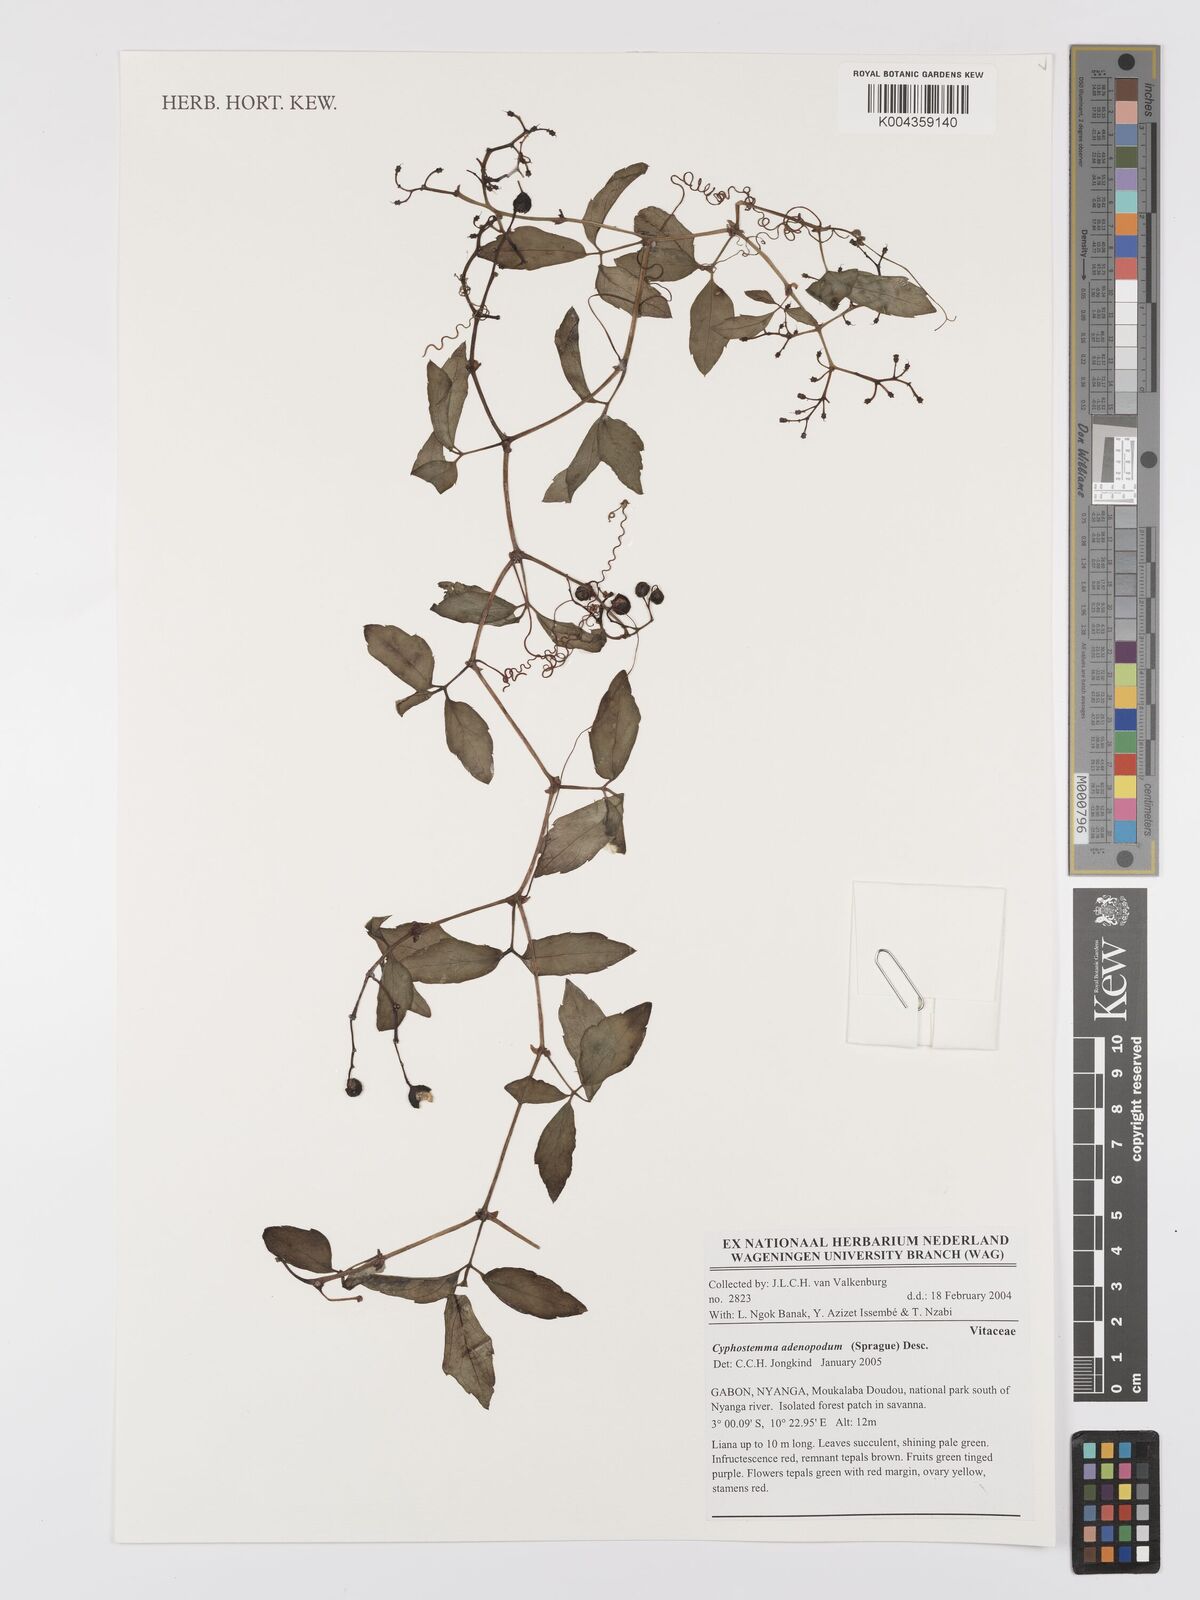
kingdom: Plantae
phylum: Tracheophyta
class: Magnoliopsida
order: Vitales
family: Vitaceae
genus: Cyphostemma
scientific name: Cyphostemma adenopodum
